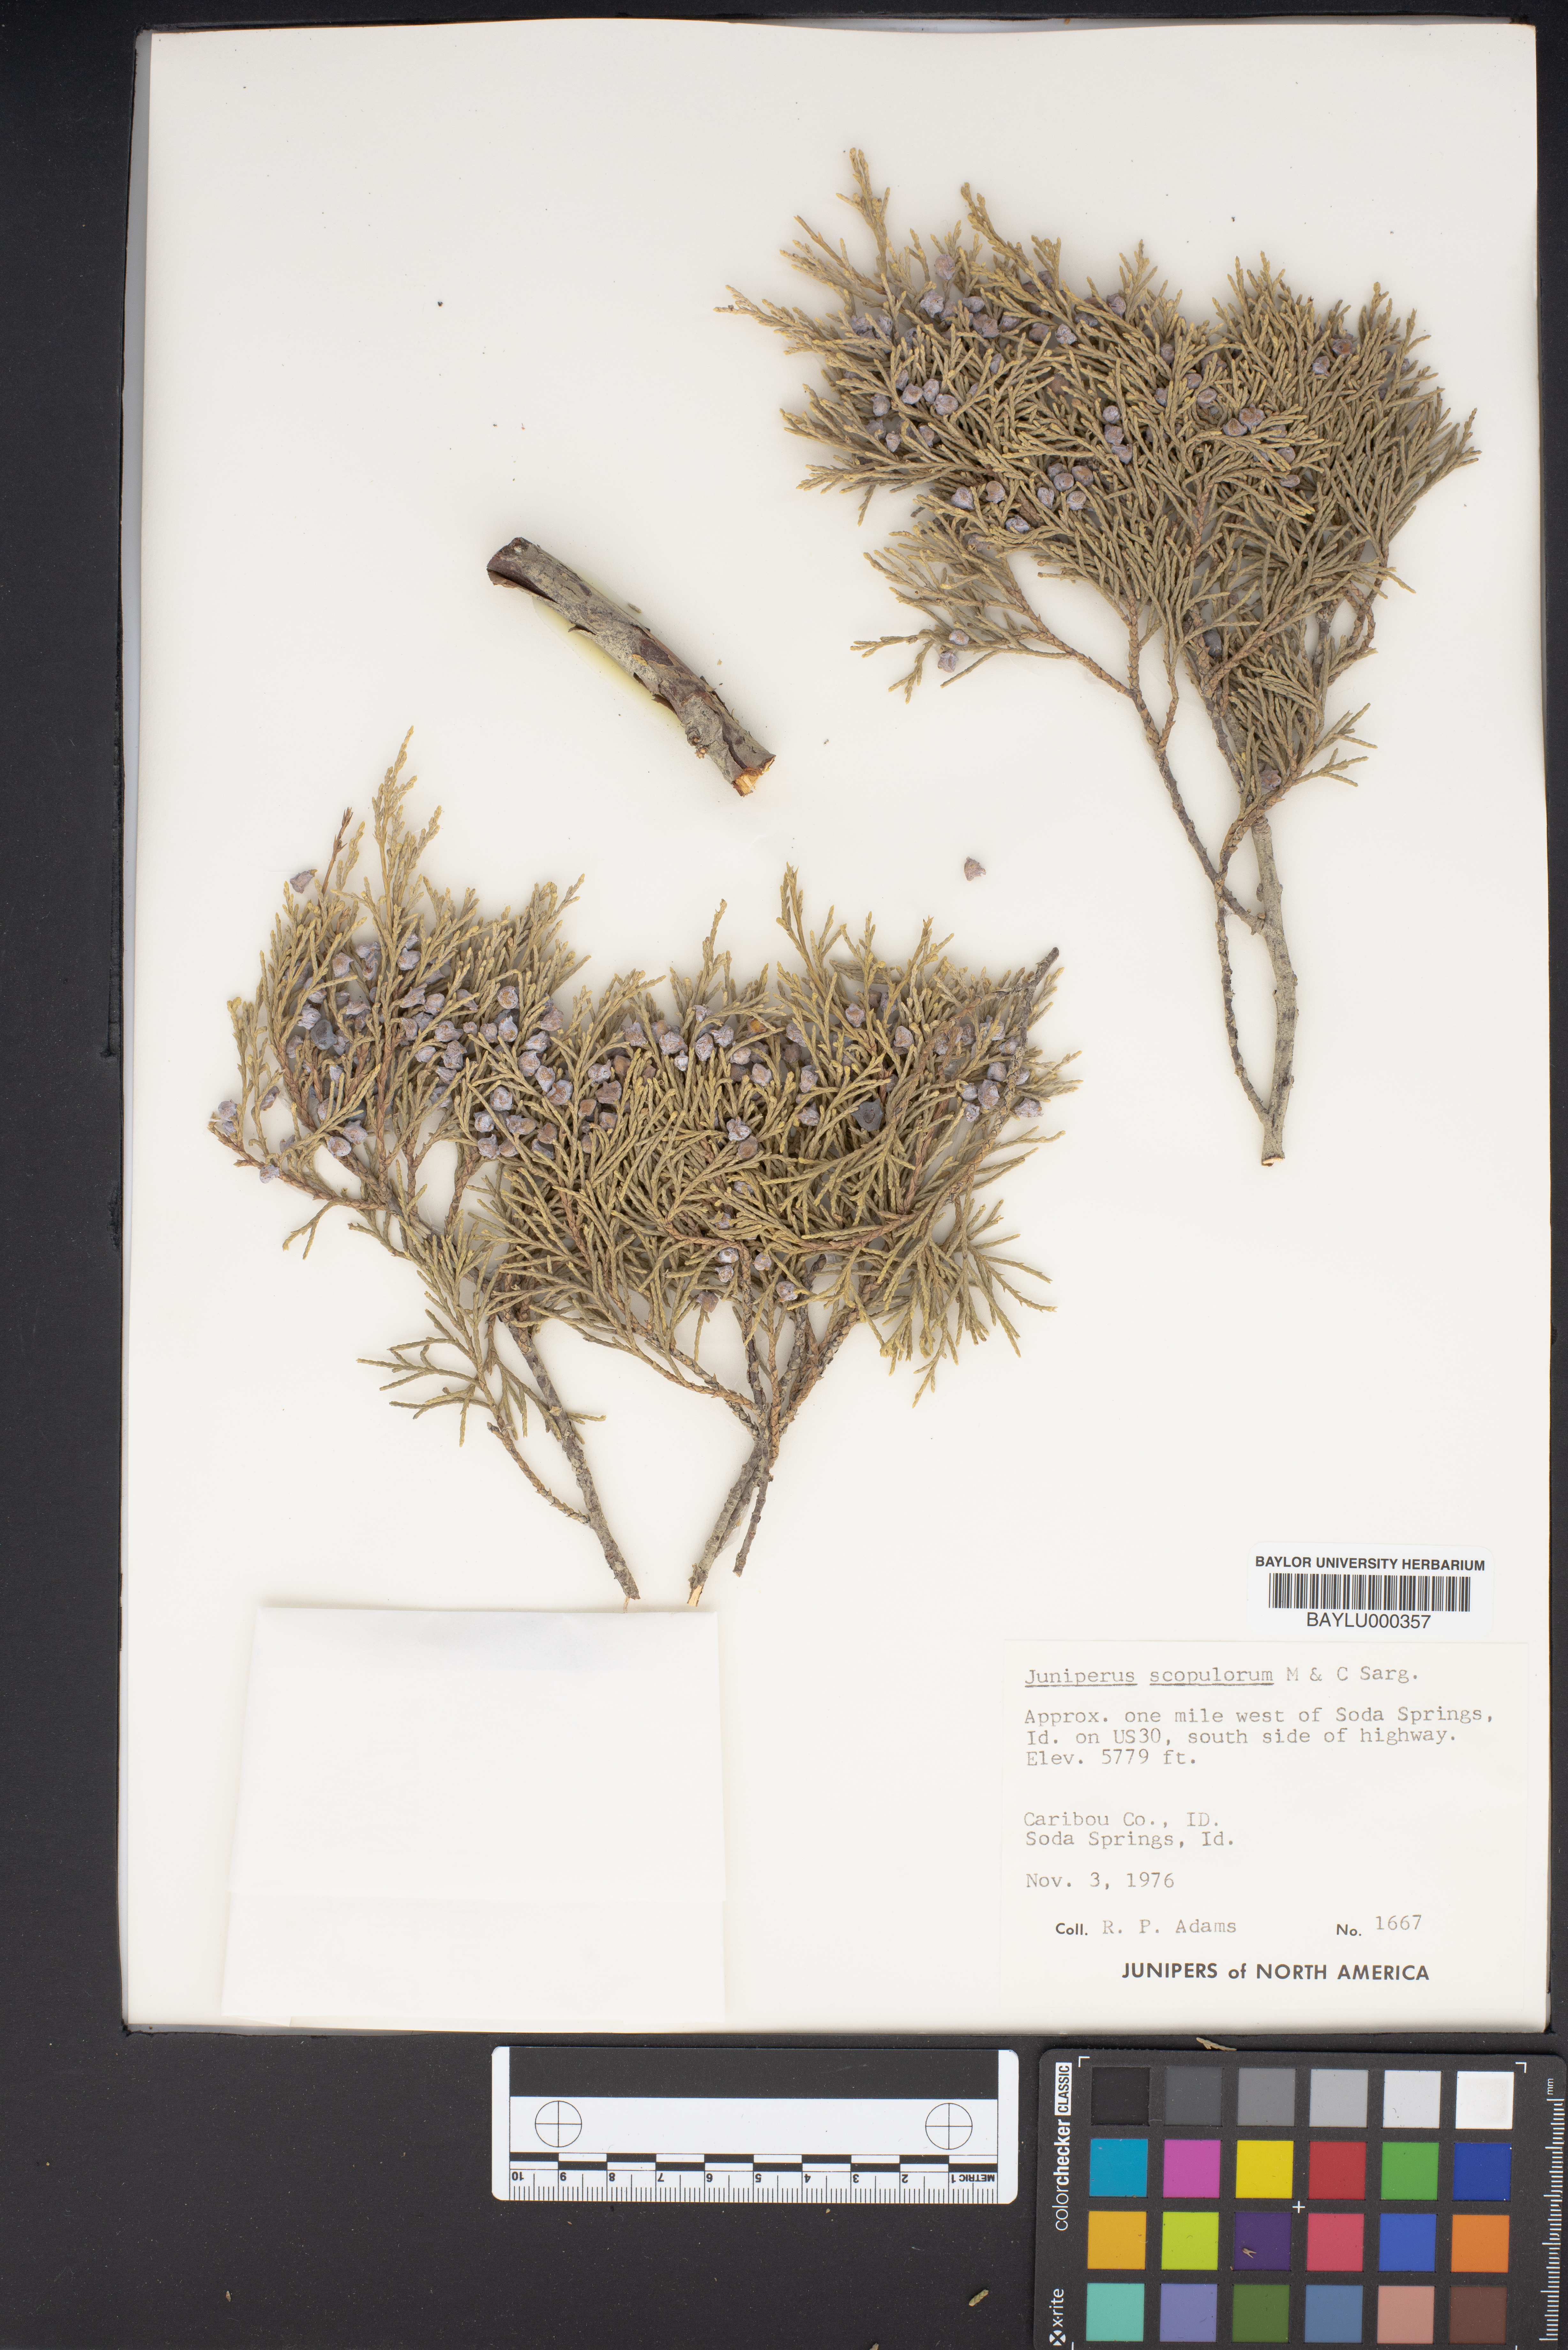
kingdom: Plantae
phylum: Tracheophyta
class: Pinopsida
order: Pinales
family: Cupressaceae
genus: Juniperus
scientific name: Juniperus scopulorum
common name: Rocky mountain juniper
